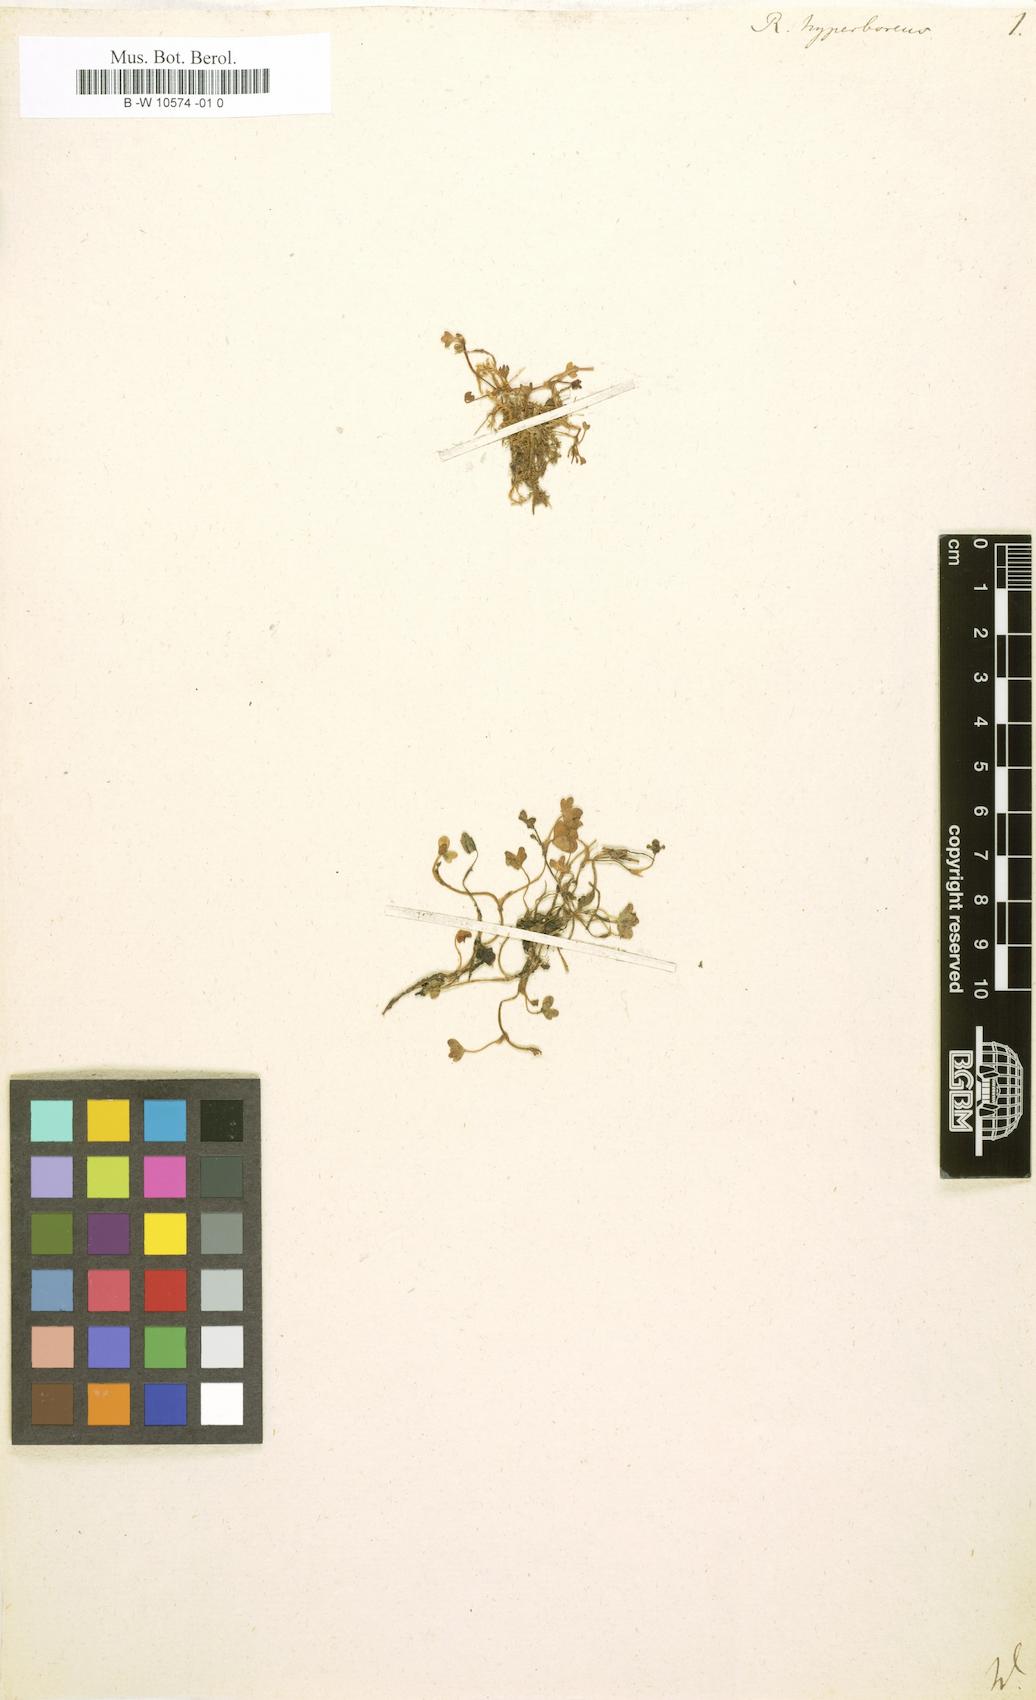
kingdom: Plantae
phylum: Tracheophyta
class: Magnoliopsida
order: Ranunculales
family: Ranunculaceae
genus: Ranunculus
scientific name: Ranunculus hyperboreus
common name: Arctic buttercup
